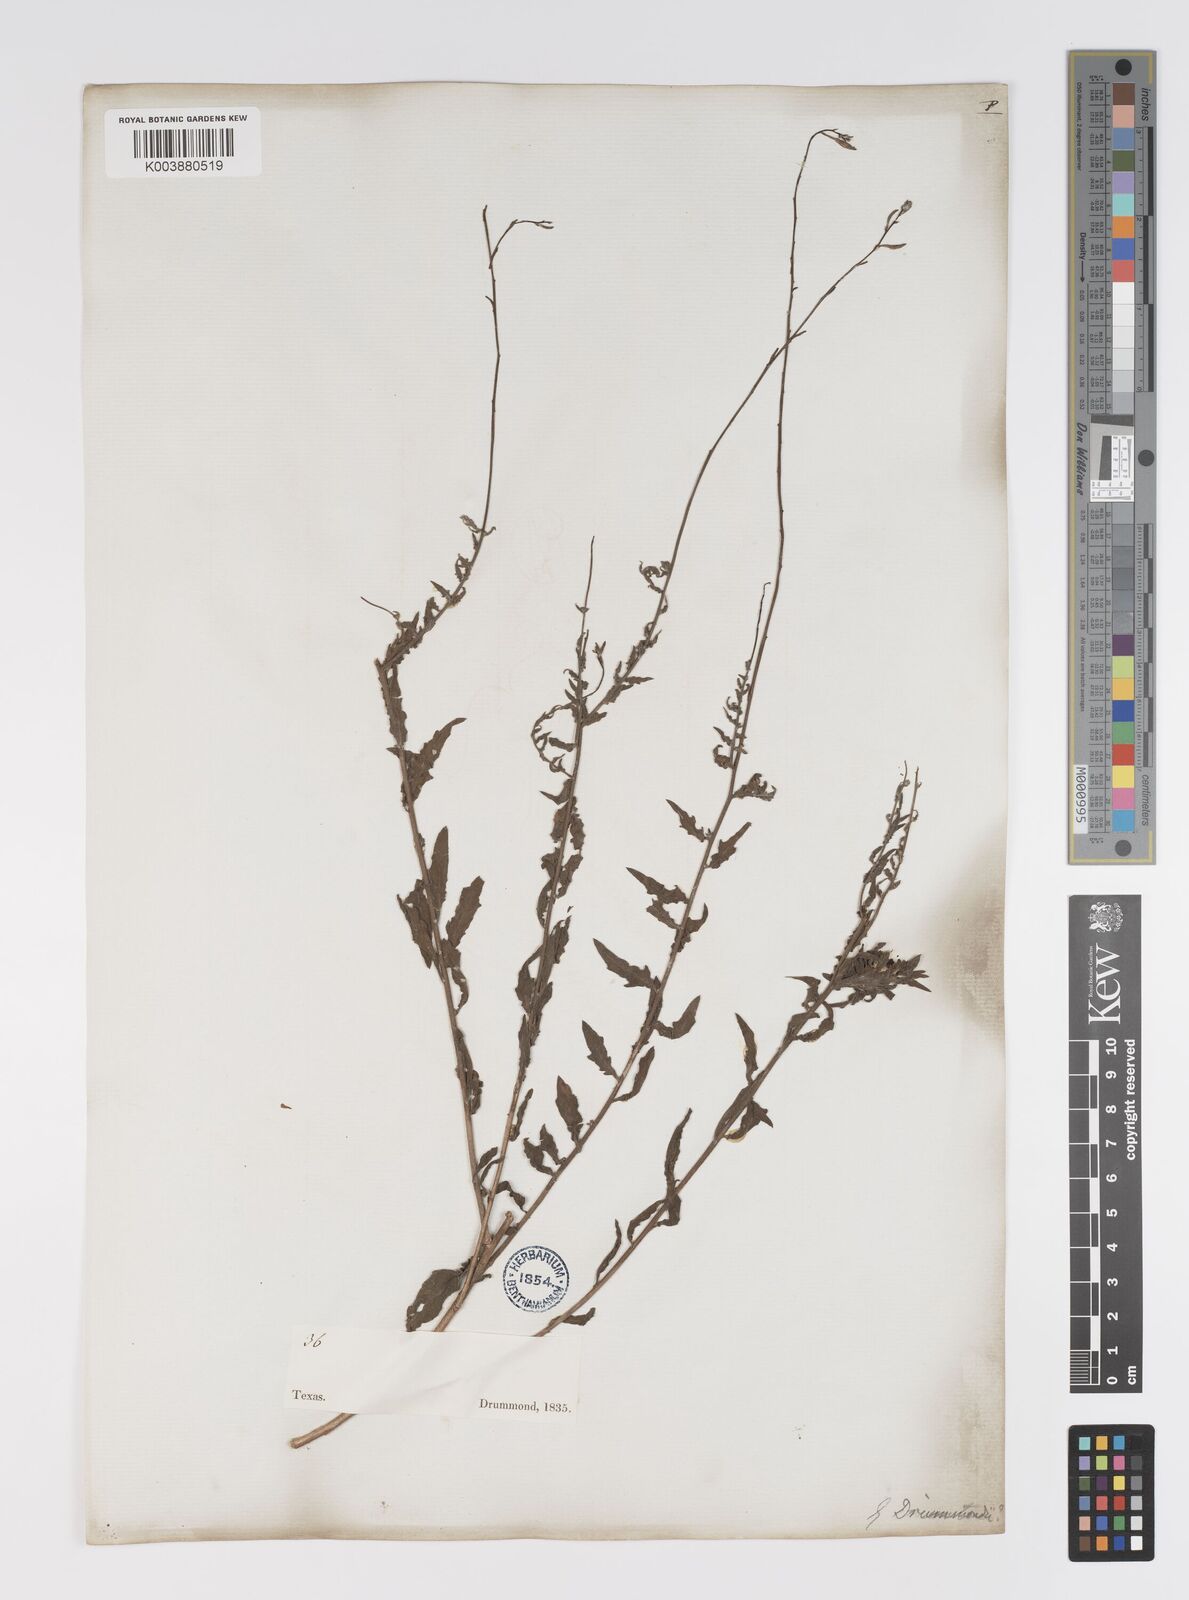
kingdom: Plantae
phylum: Tracheophyta
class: Magnoliopsida
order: Myrtales
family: Onagraceae
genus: Oenothera
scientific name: Oenothera hispida
